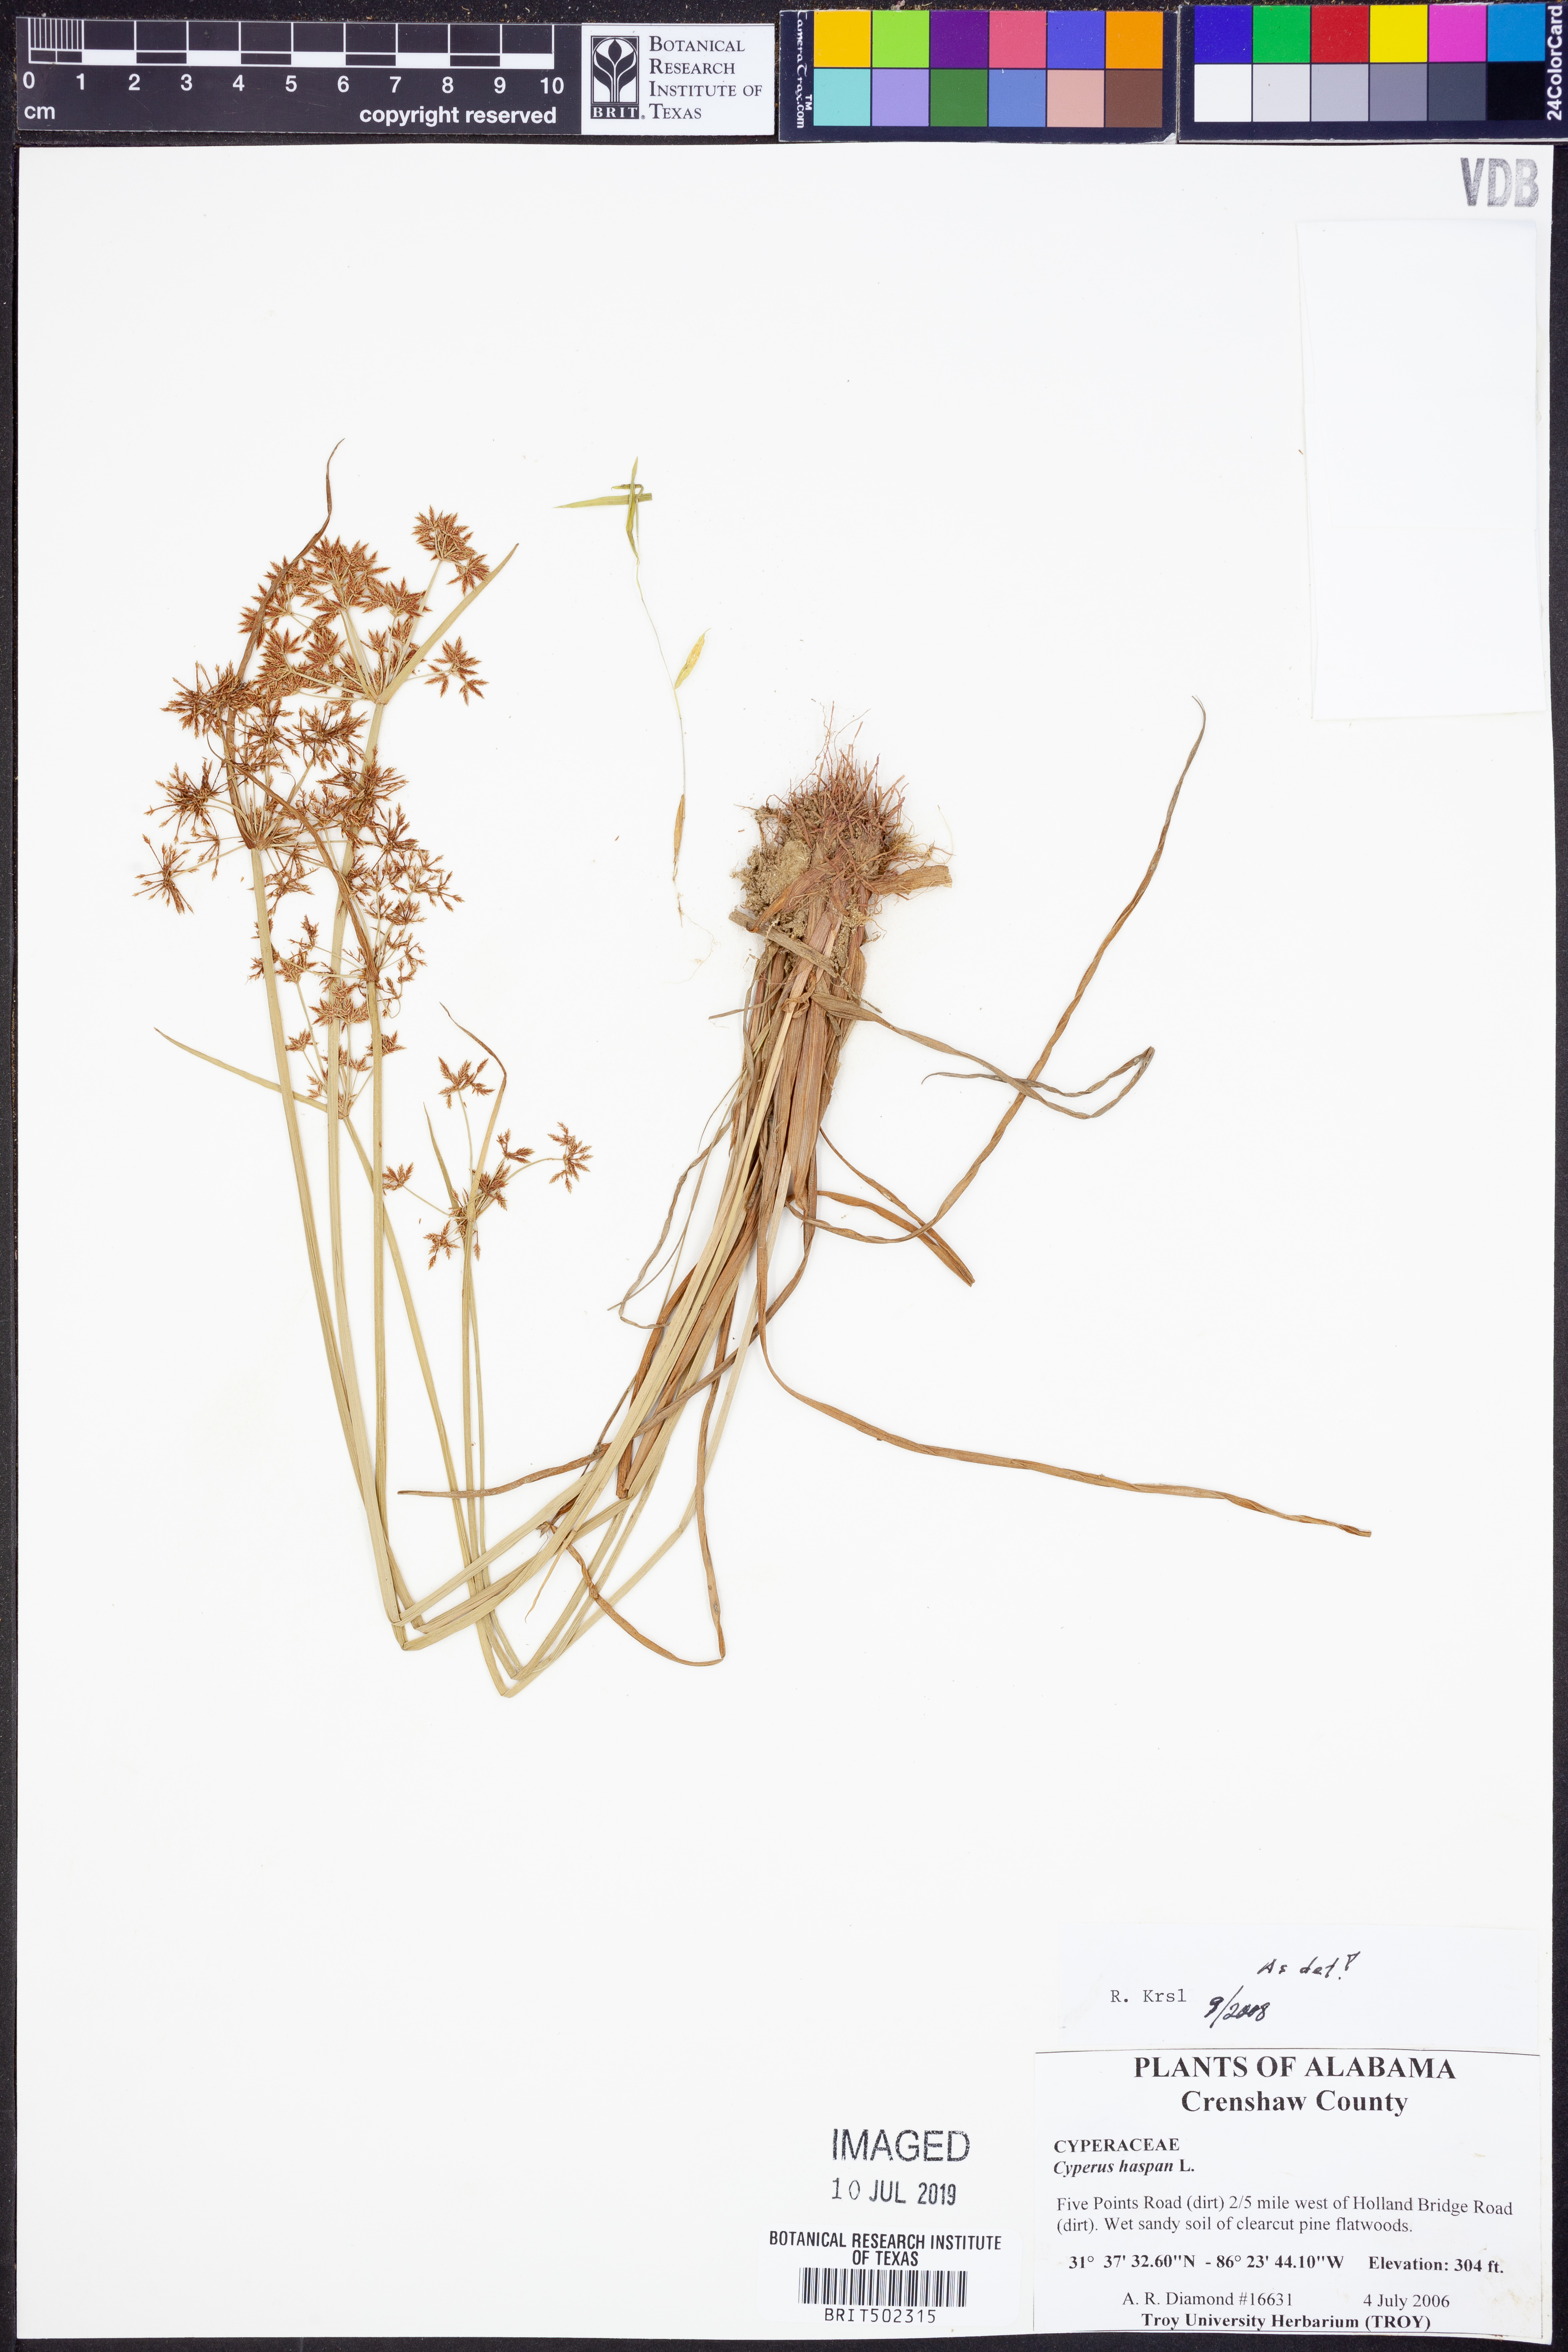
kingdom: Plantae
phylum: Tracheophyta
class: Liliopsida
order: Poales
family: Cyperaceae
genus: Cyperus
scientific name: Cyperus haspan
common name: Haspan flatsedge
